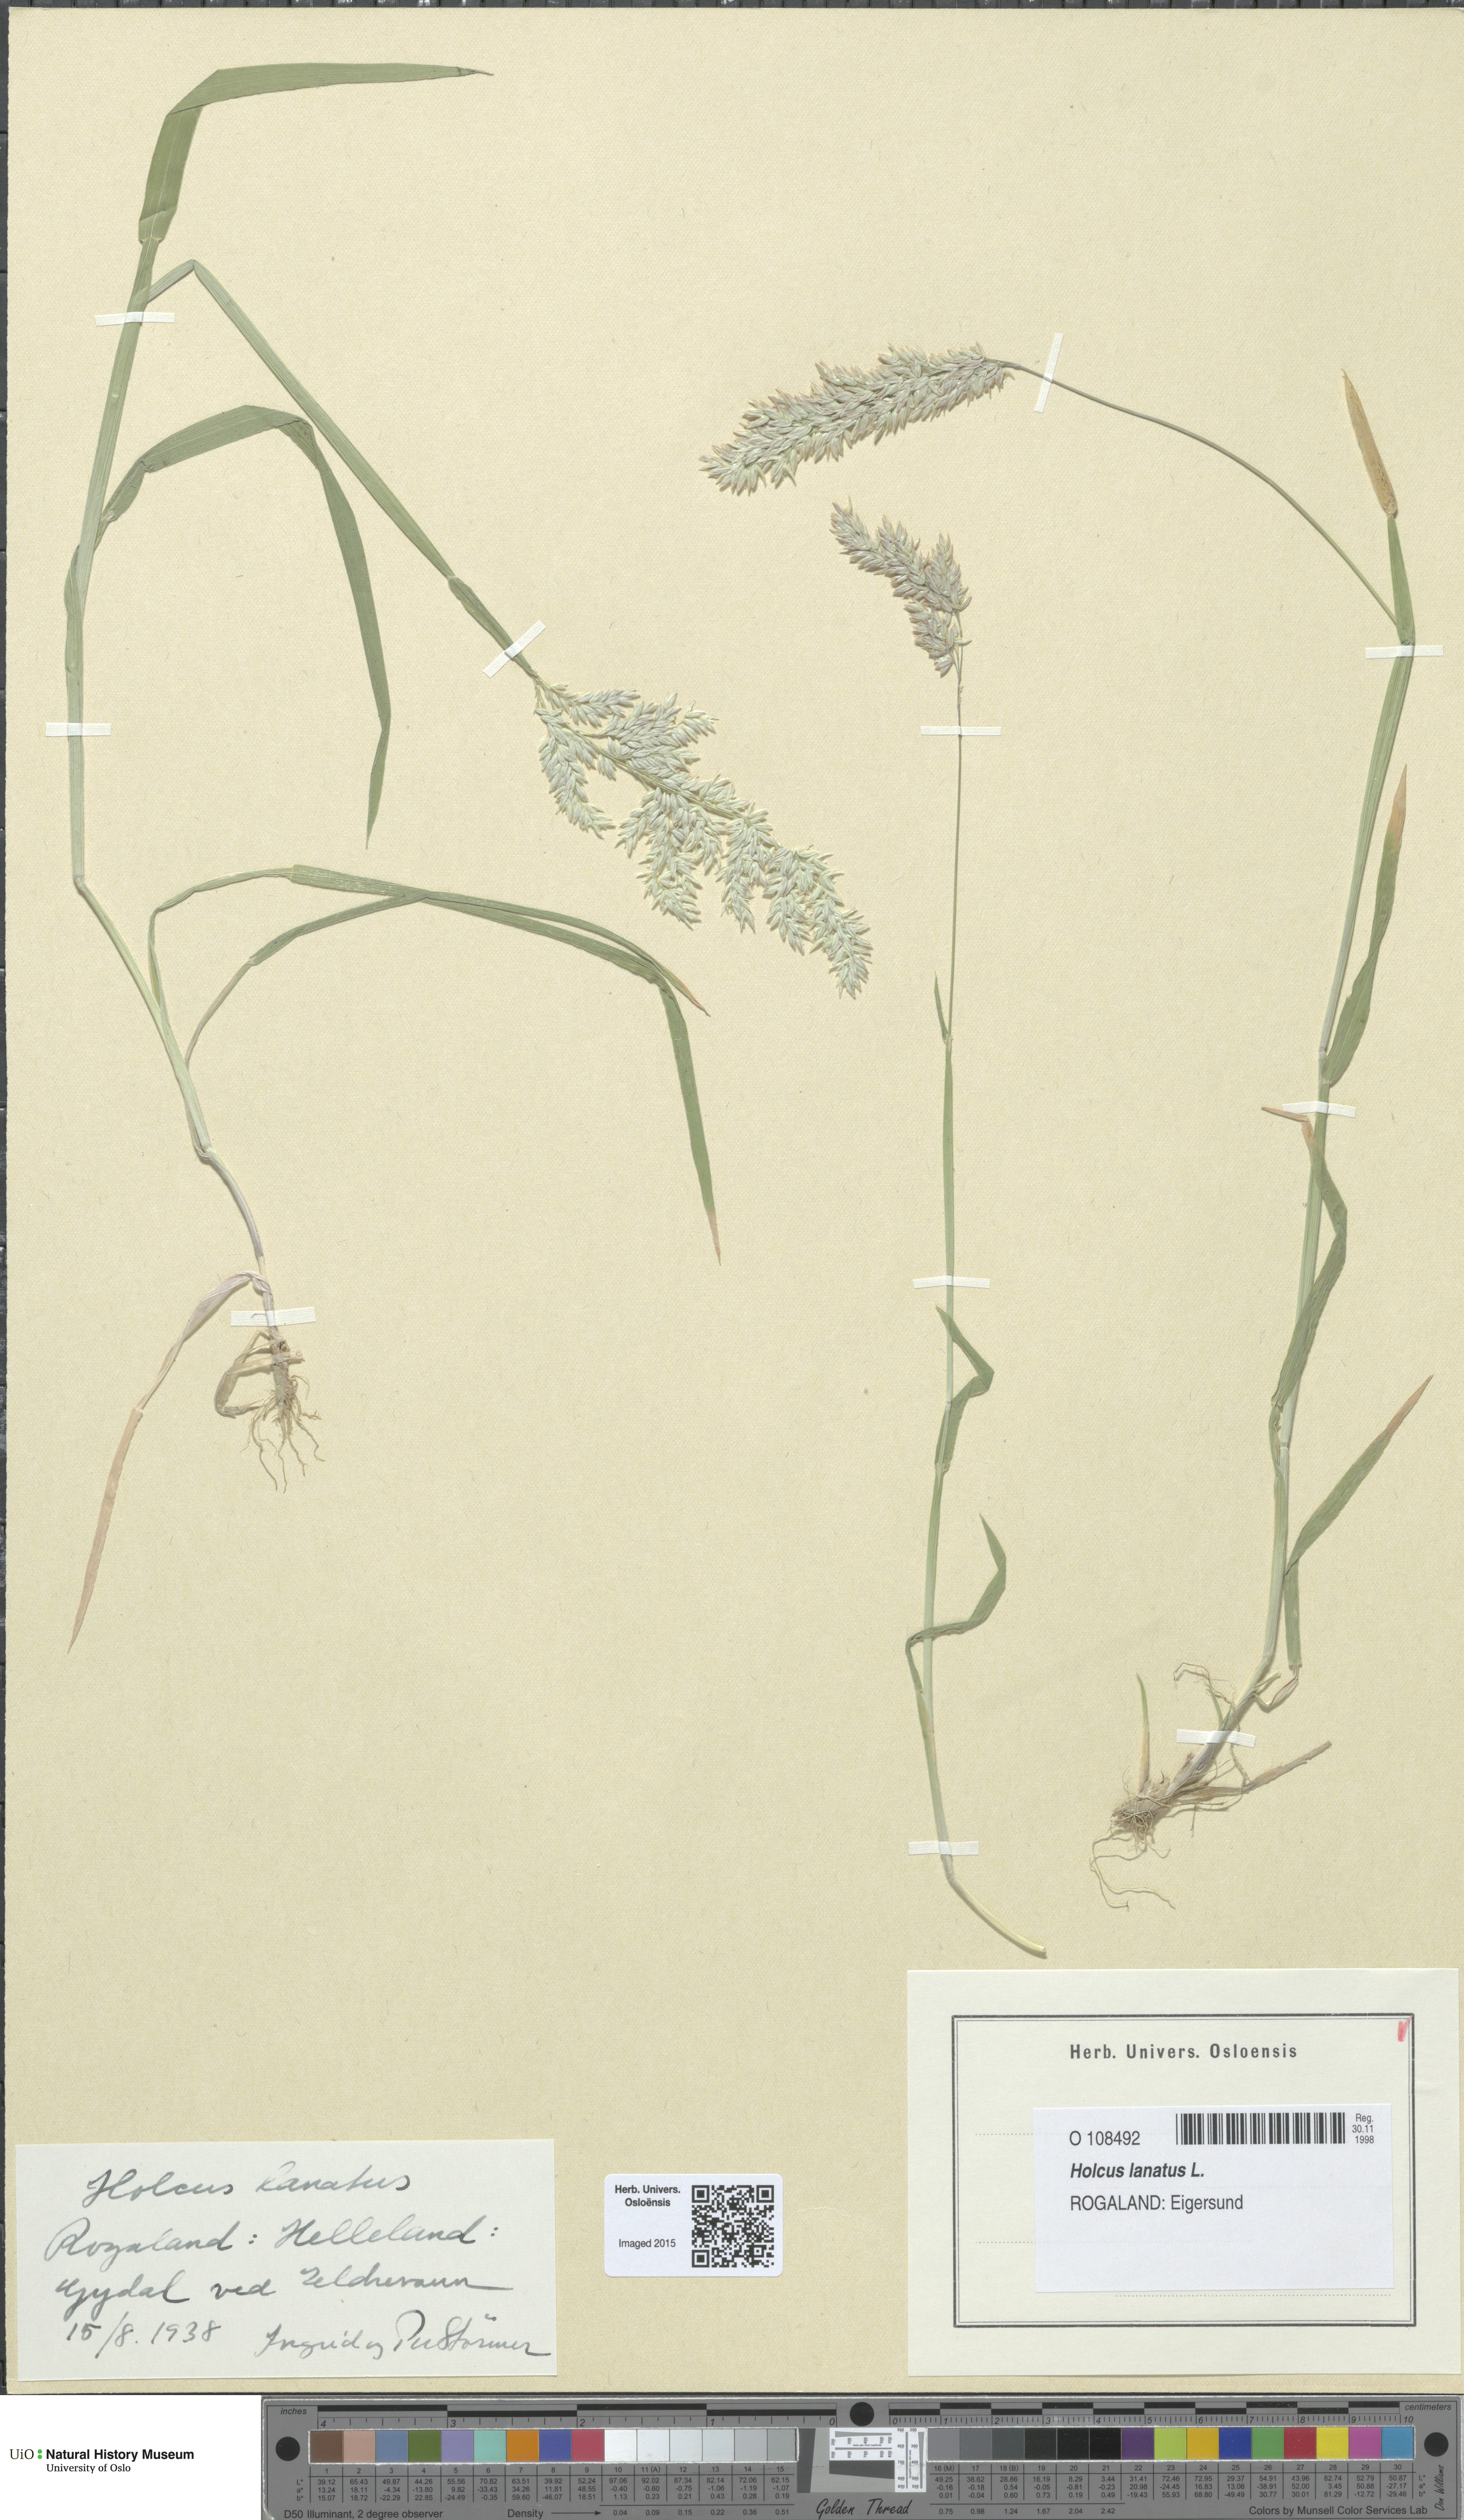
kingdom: Plantae
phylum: Tracheophyta
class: Liliopsida
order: Poales
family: Poaceae
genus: Holcus
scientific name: Holcus lanatus
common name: Yorkshire-fog
